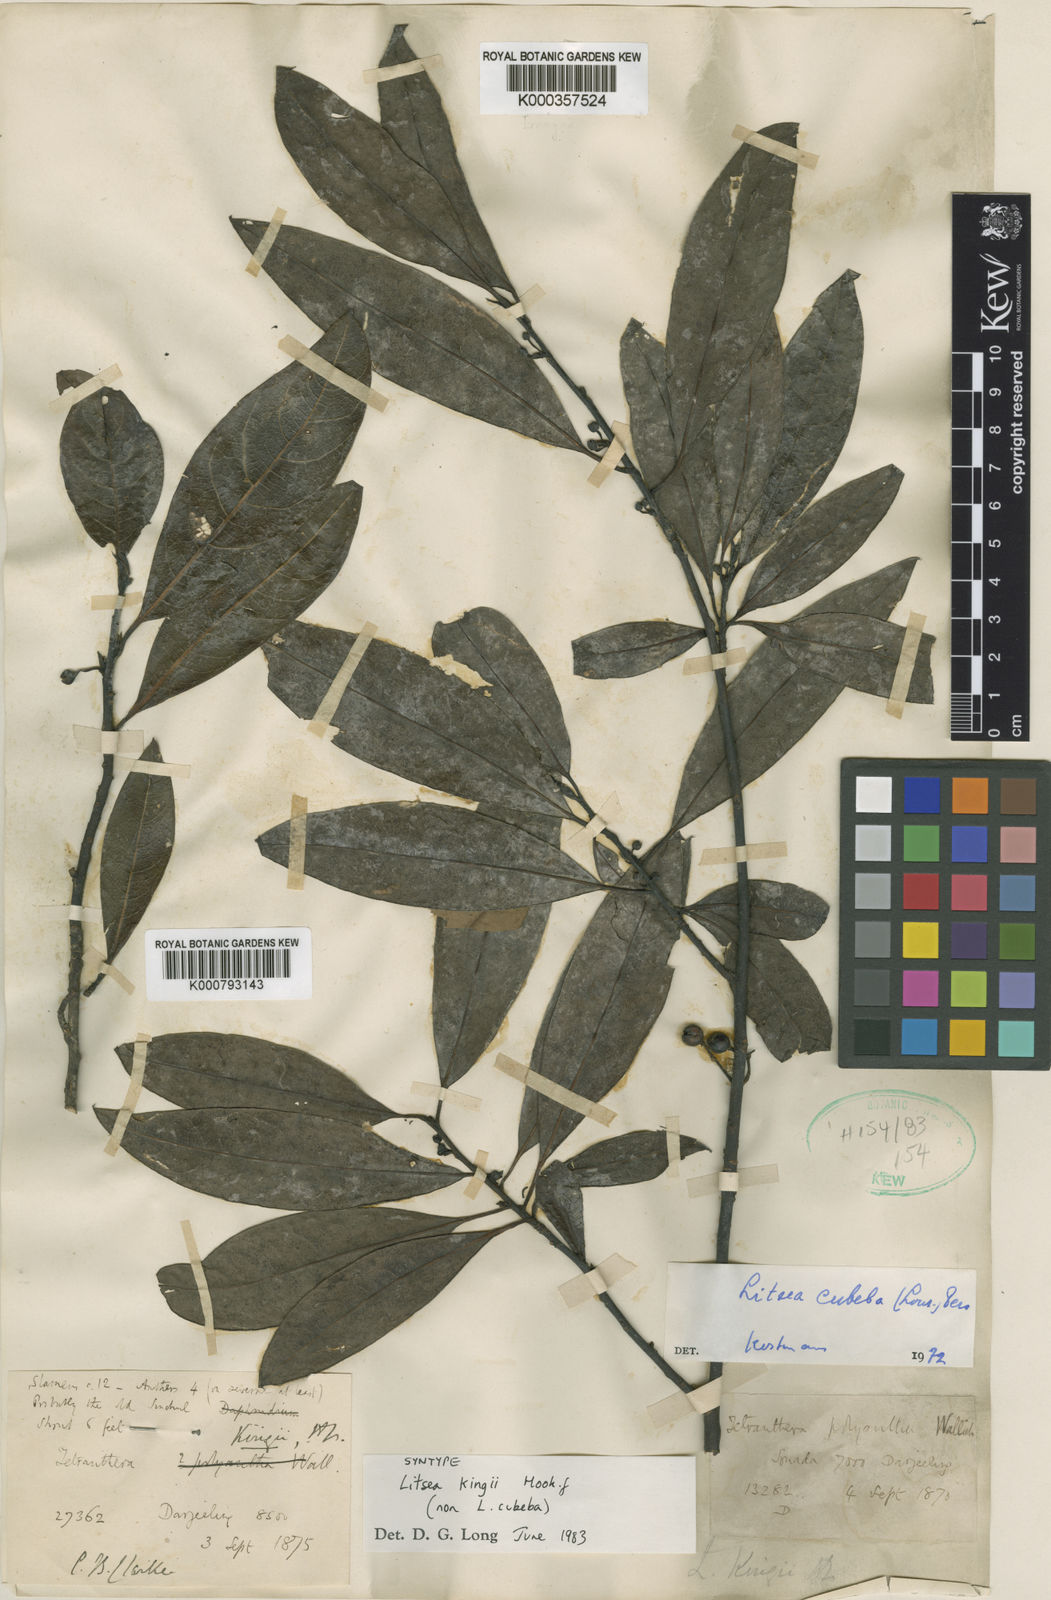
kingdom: Plantae
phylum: Tracheophyta
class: Magnoliopsida
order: Laurales
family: Lauraceae
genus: Litsea
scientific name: Litsea kingii
